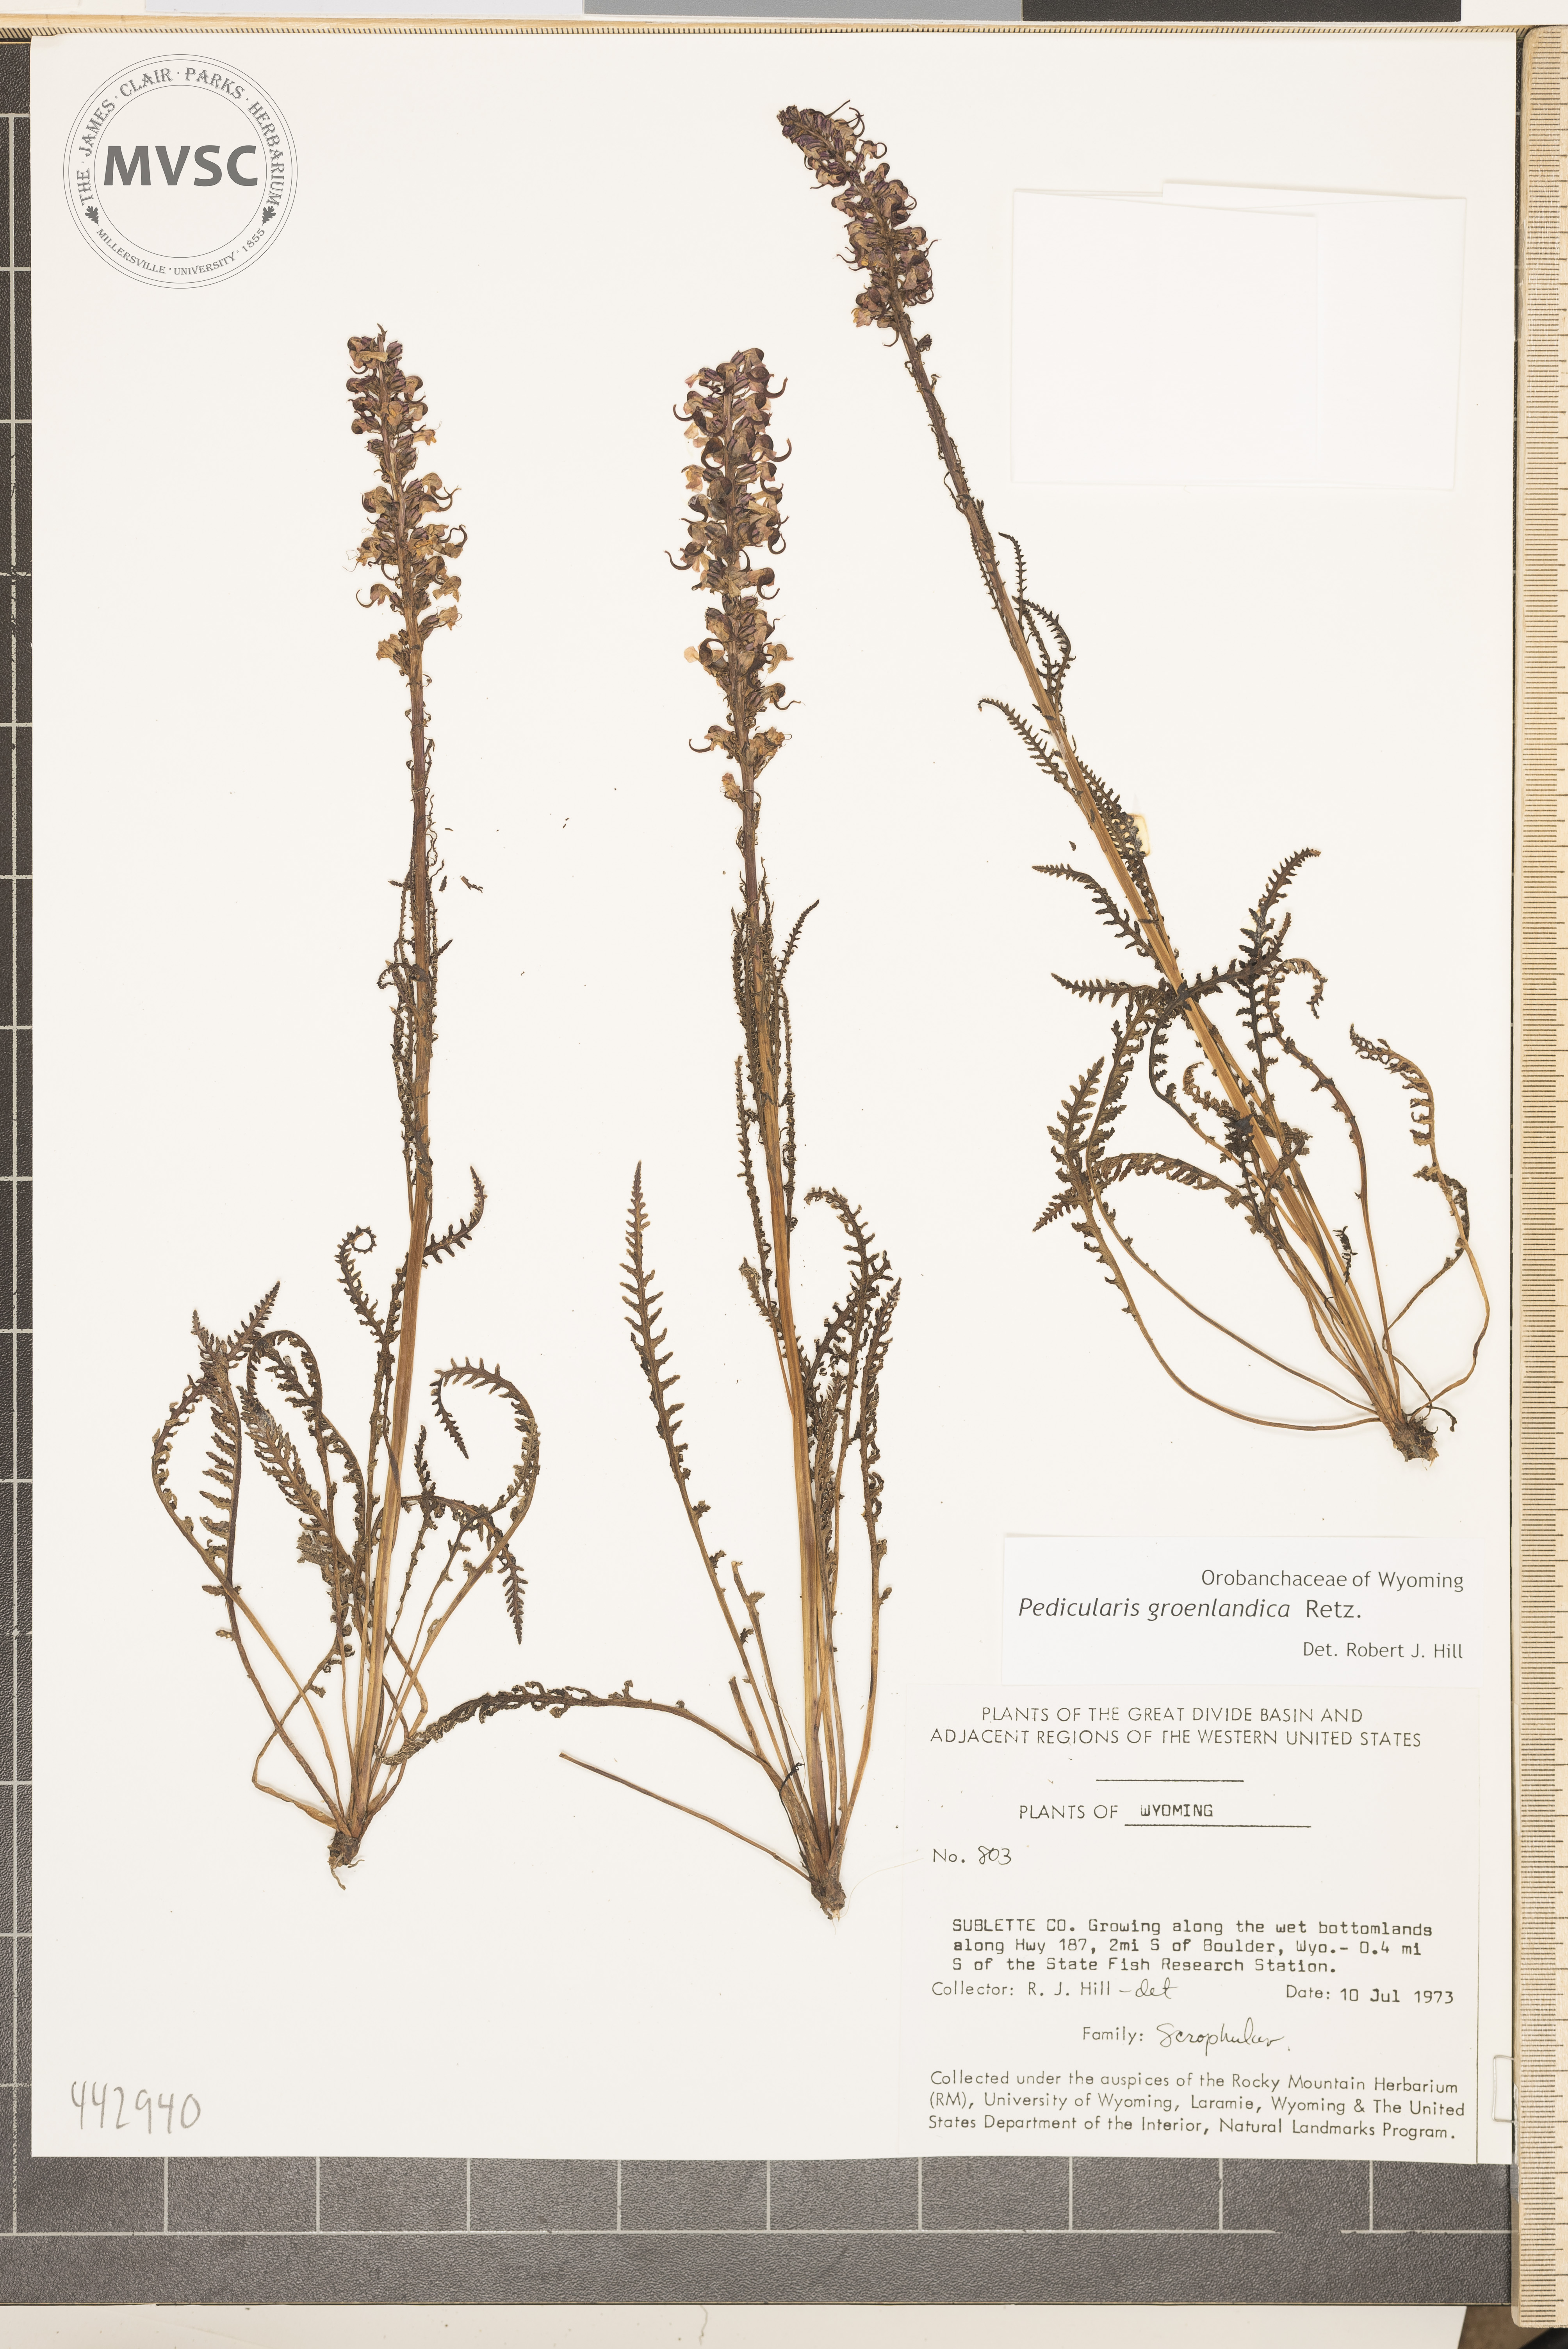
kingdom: Plantae
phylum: Tracheophyta
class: Magnoliopsida
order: Lamiales
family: Orobanchaceae
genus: Pedicularis
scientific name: Pedicularis groenlandica
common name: Elephant's-head
